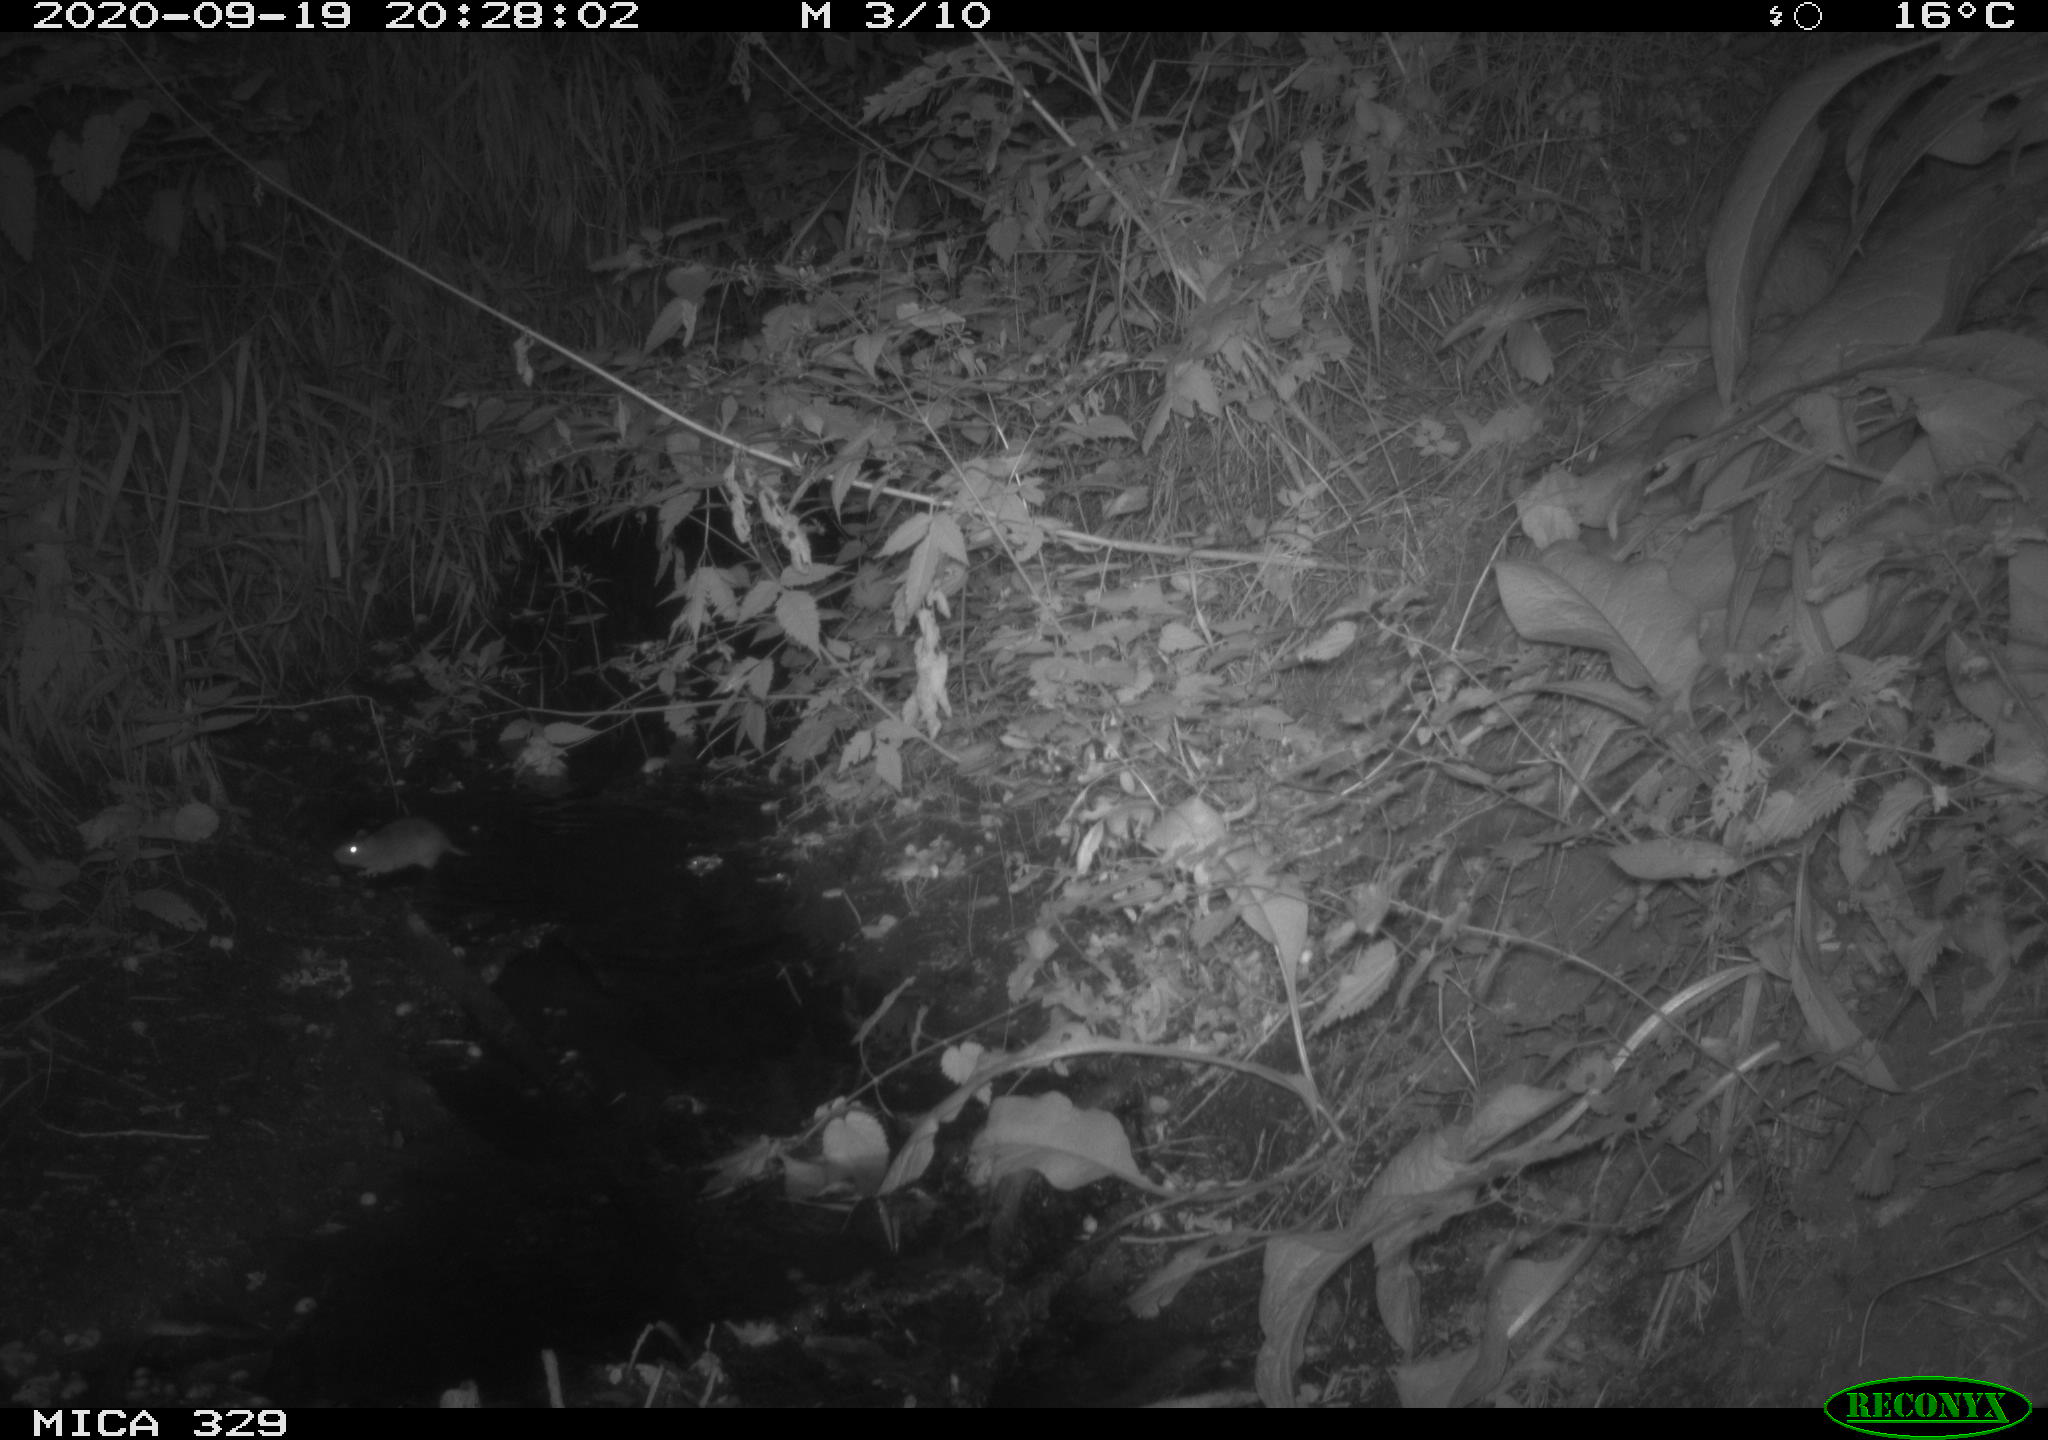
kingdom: Animalia
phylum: Chordata
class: Mammalia
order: Rodentia
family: Muridae
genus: Rattus
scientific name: Rattus norvegicus
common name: Brown rat
